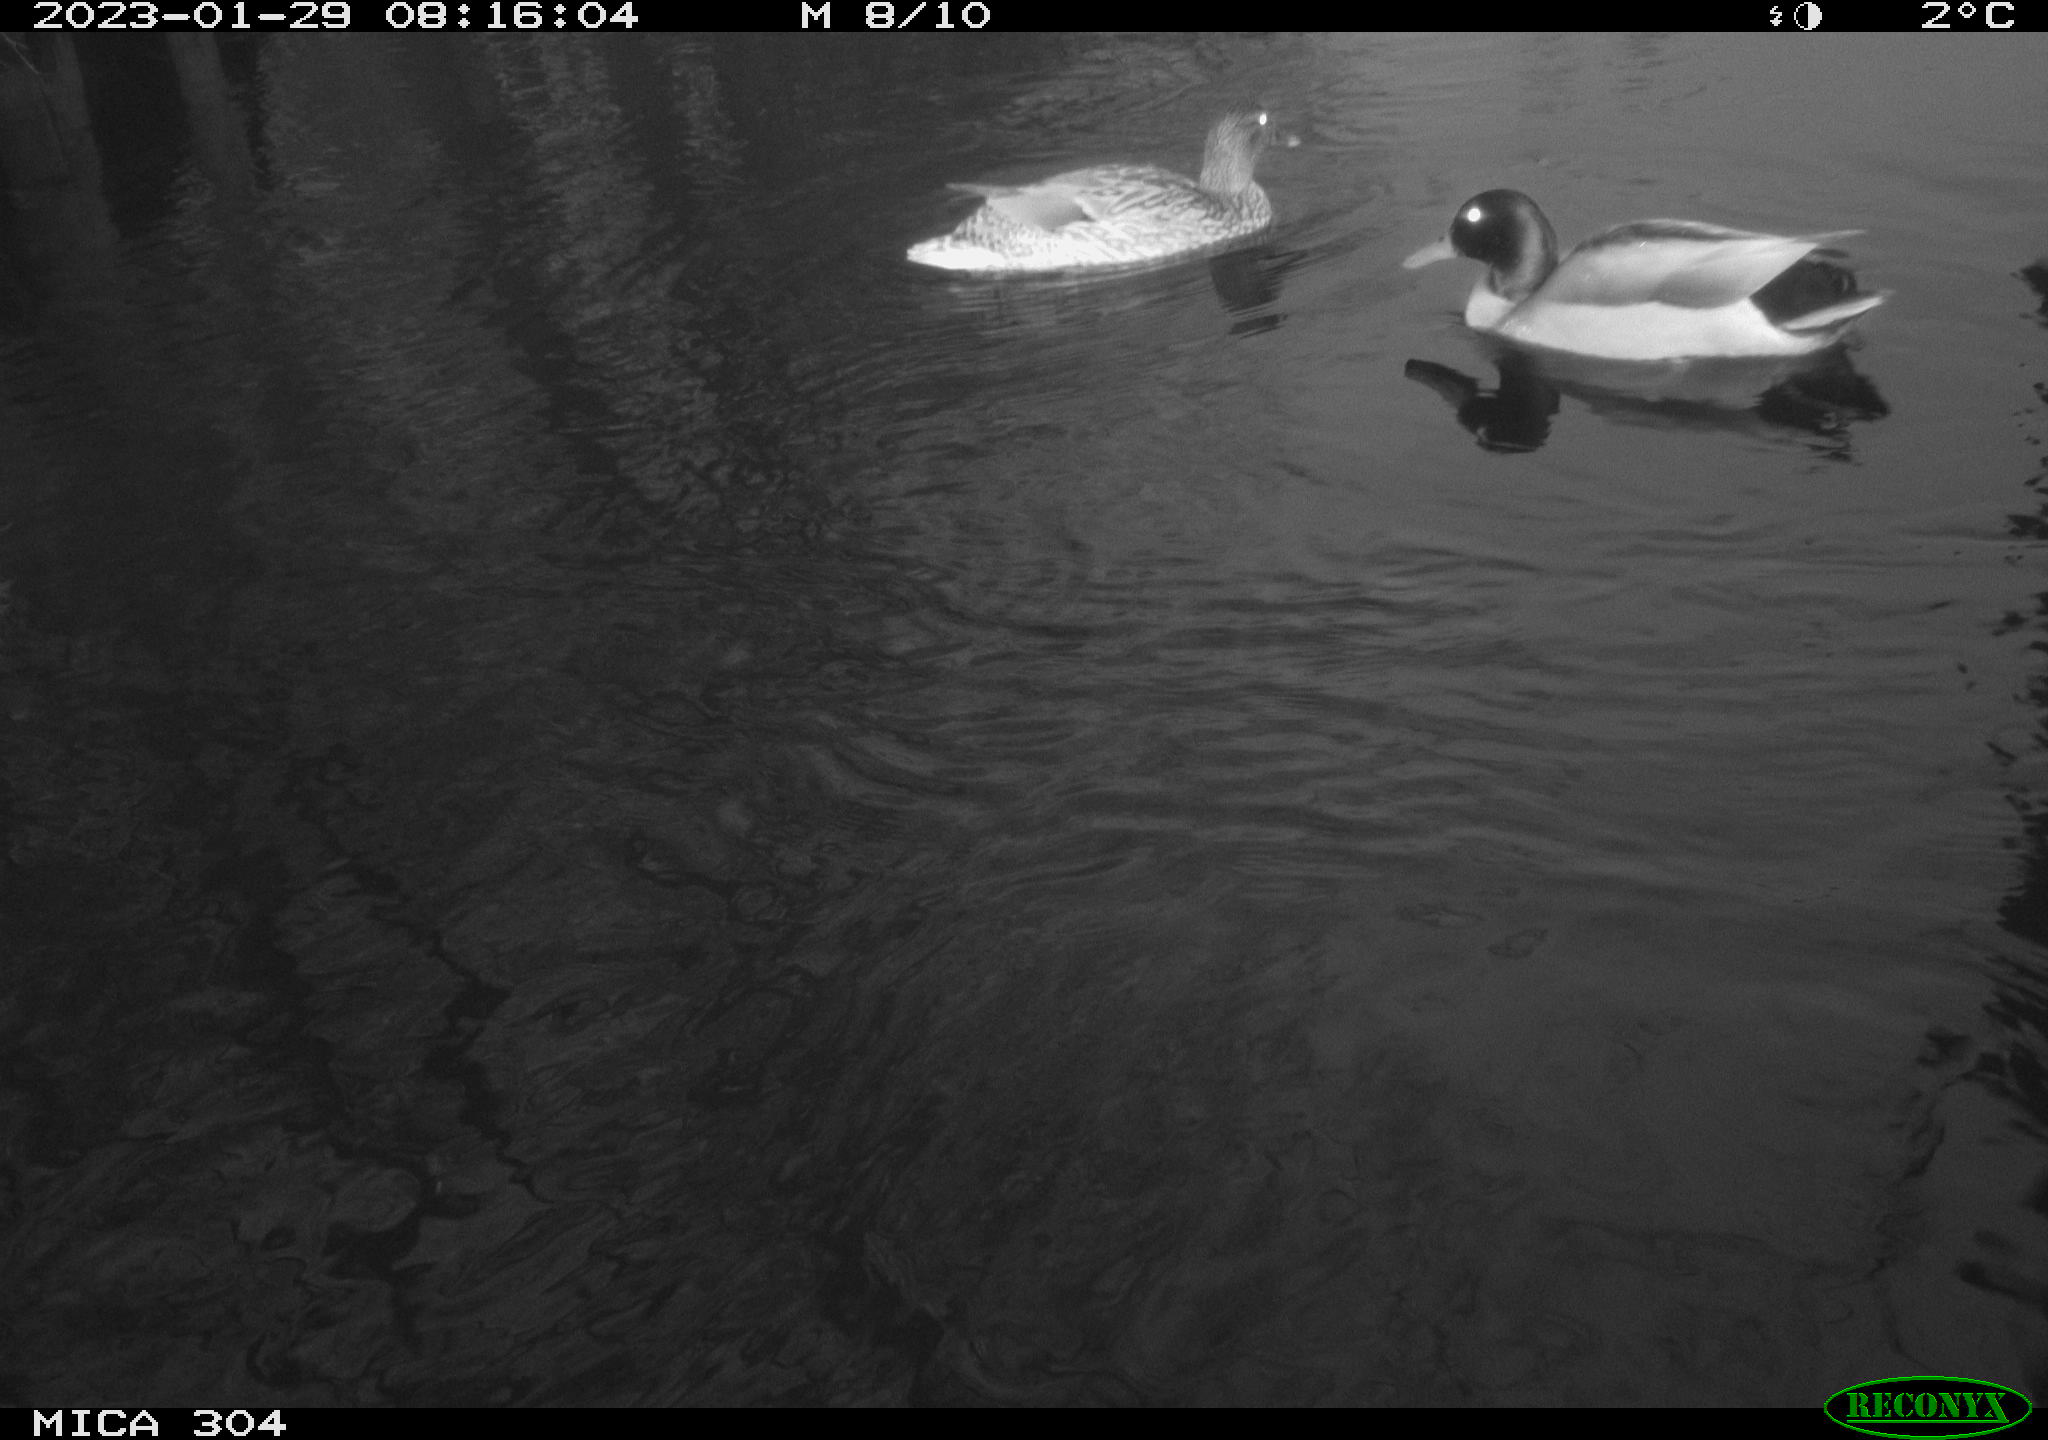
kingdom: Animalia
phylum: Chordata
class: Aves
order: Anseriformes
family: Anatidae
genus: Anas
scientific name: Anas
